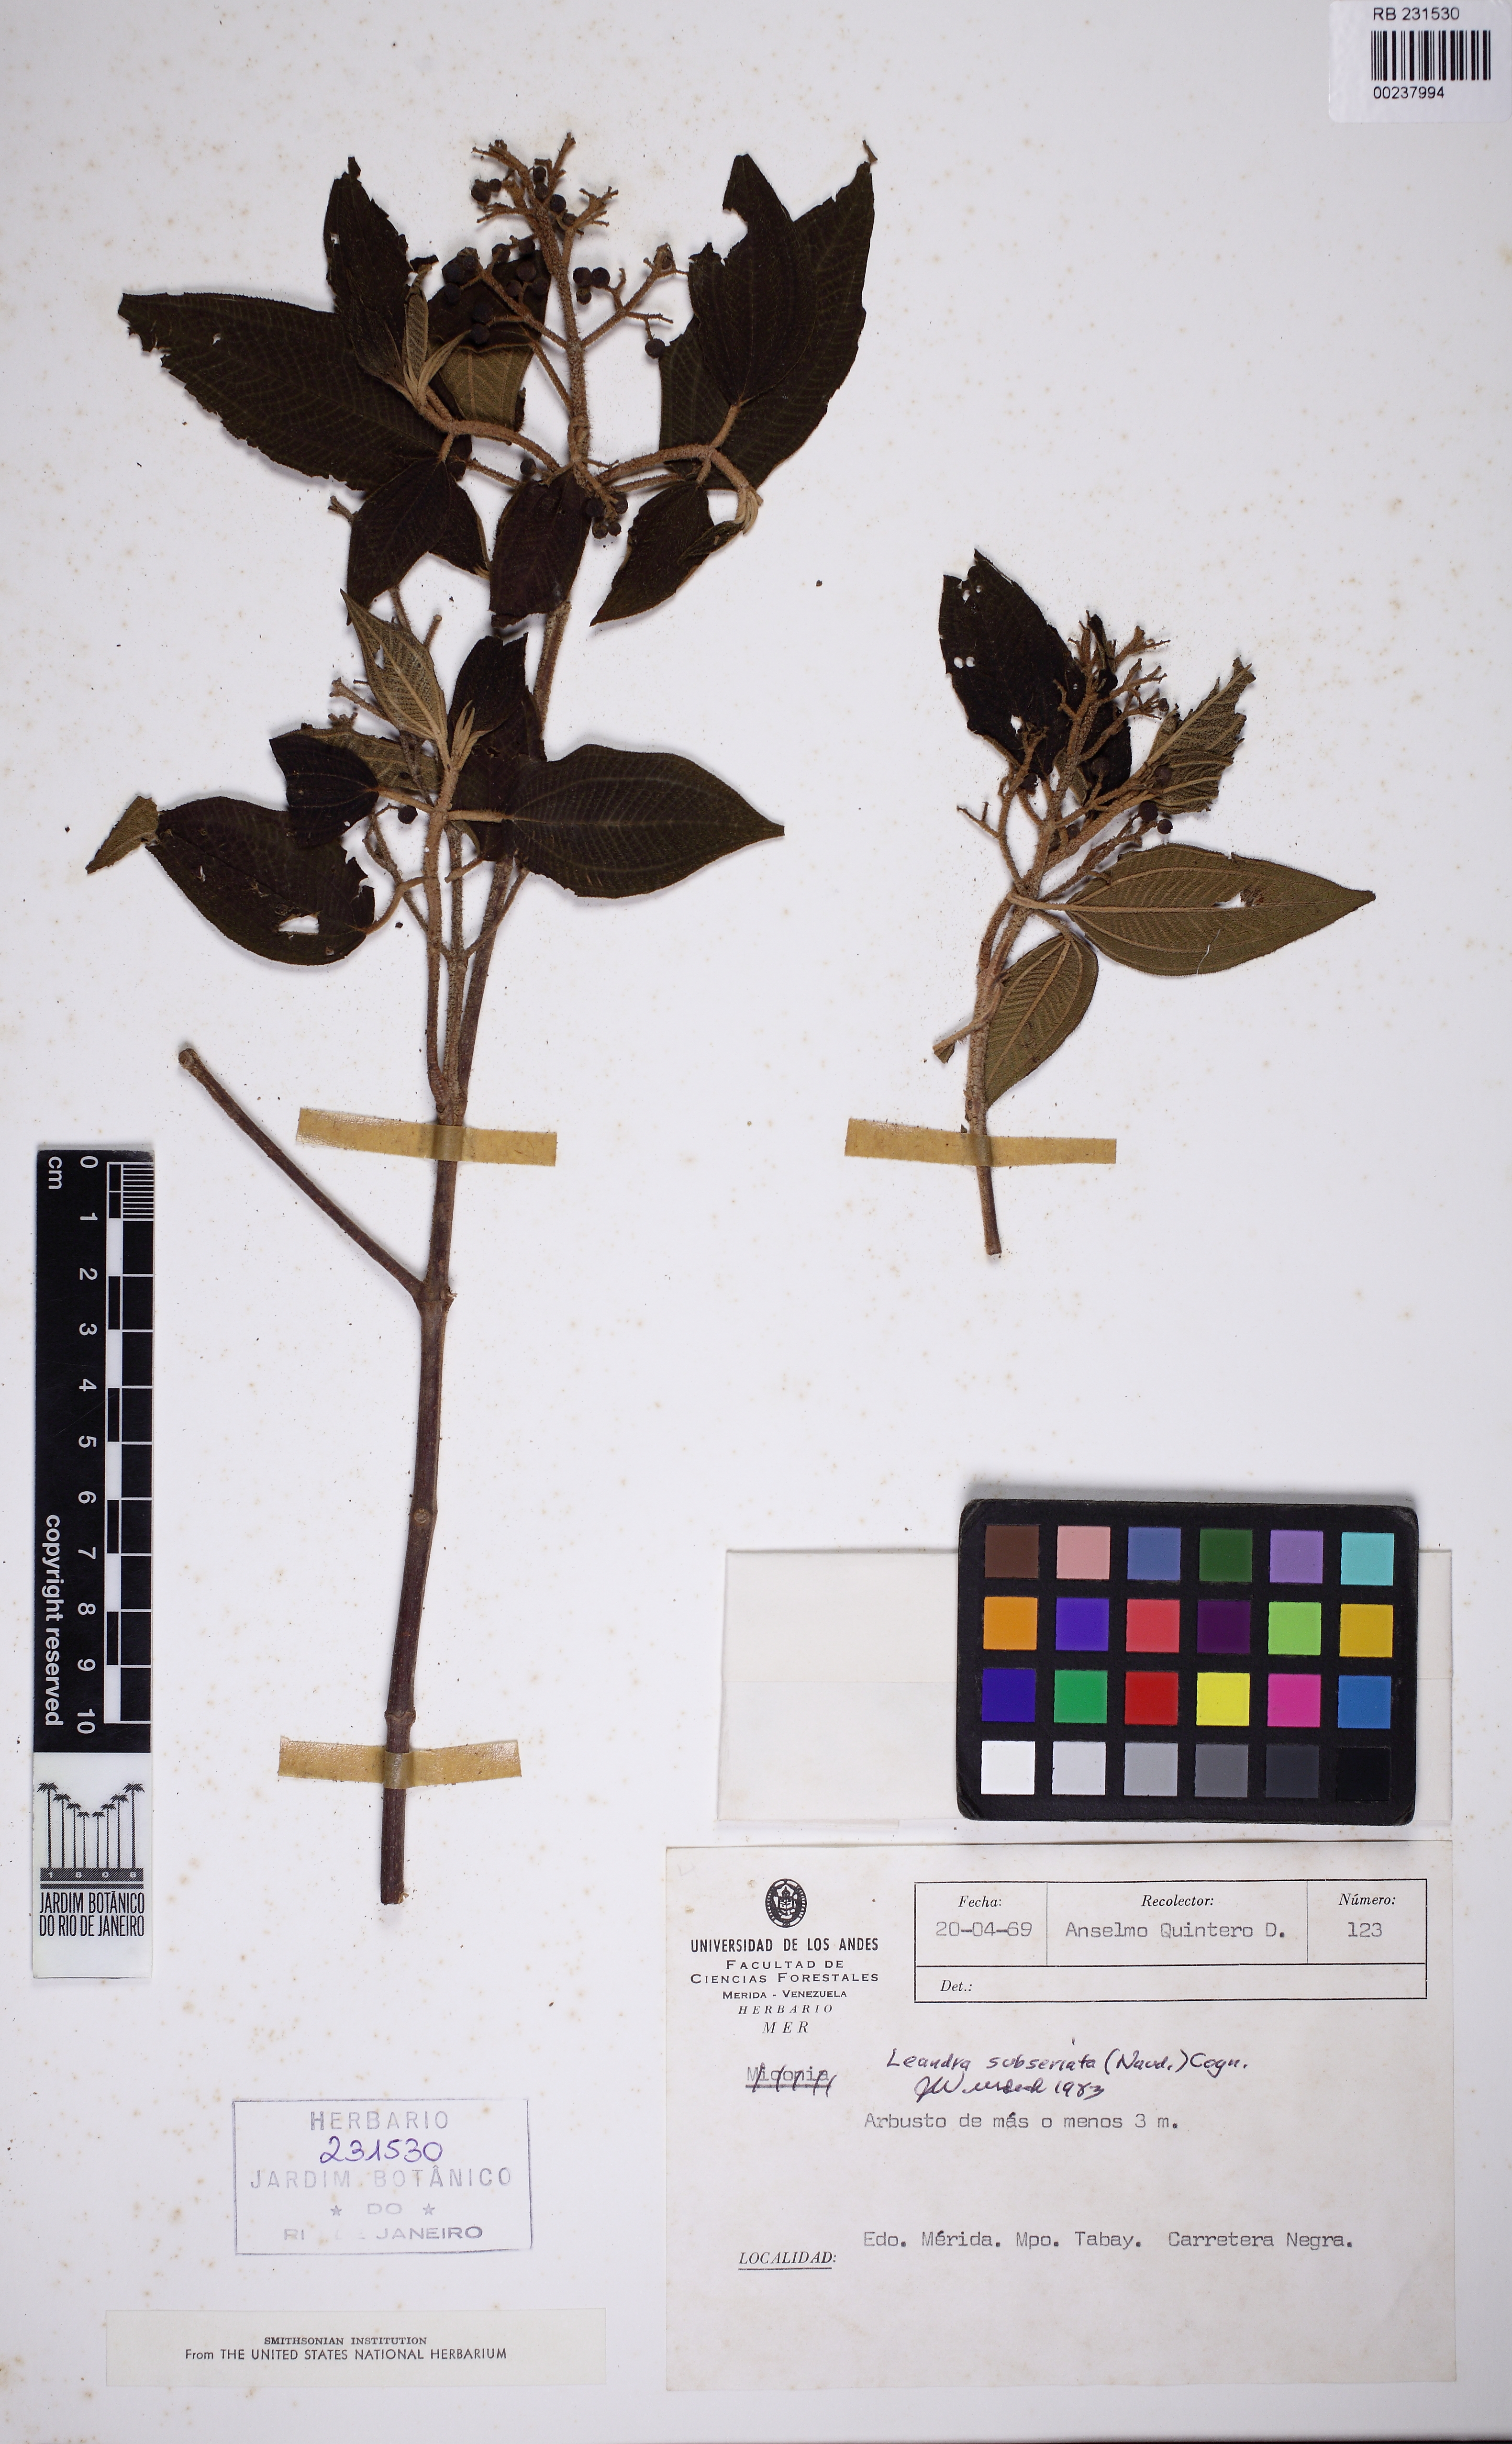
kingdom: Plantae
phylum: Tracheophyta
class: Magnoliopsida
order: Myrtales
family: Melastomataceae
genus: Miconia
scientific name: Miconia subseriata
